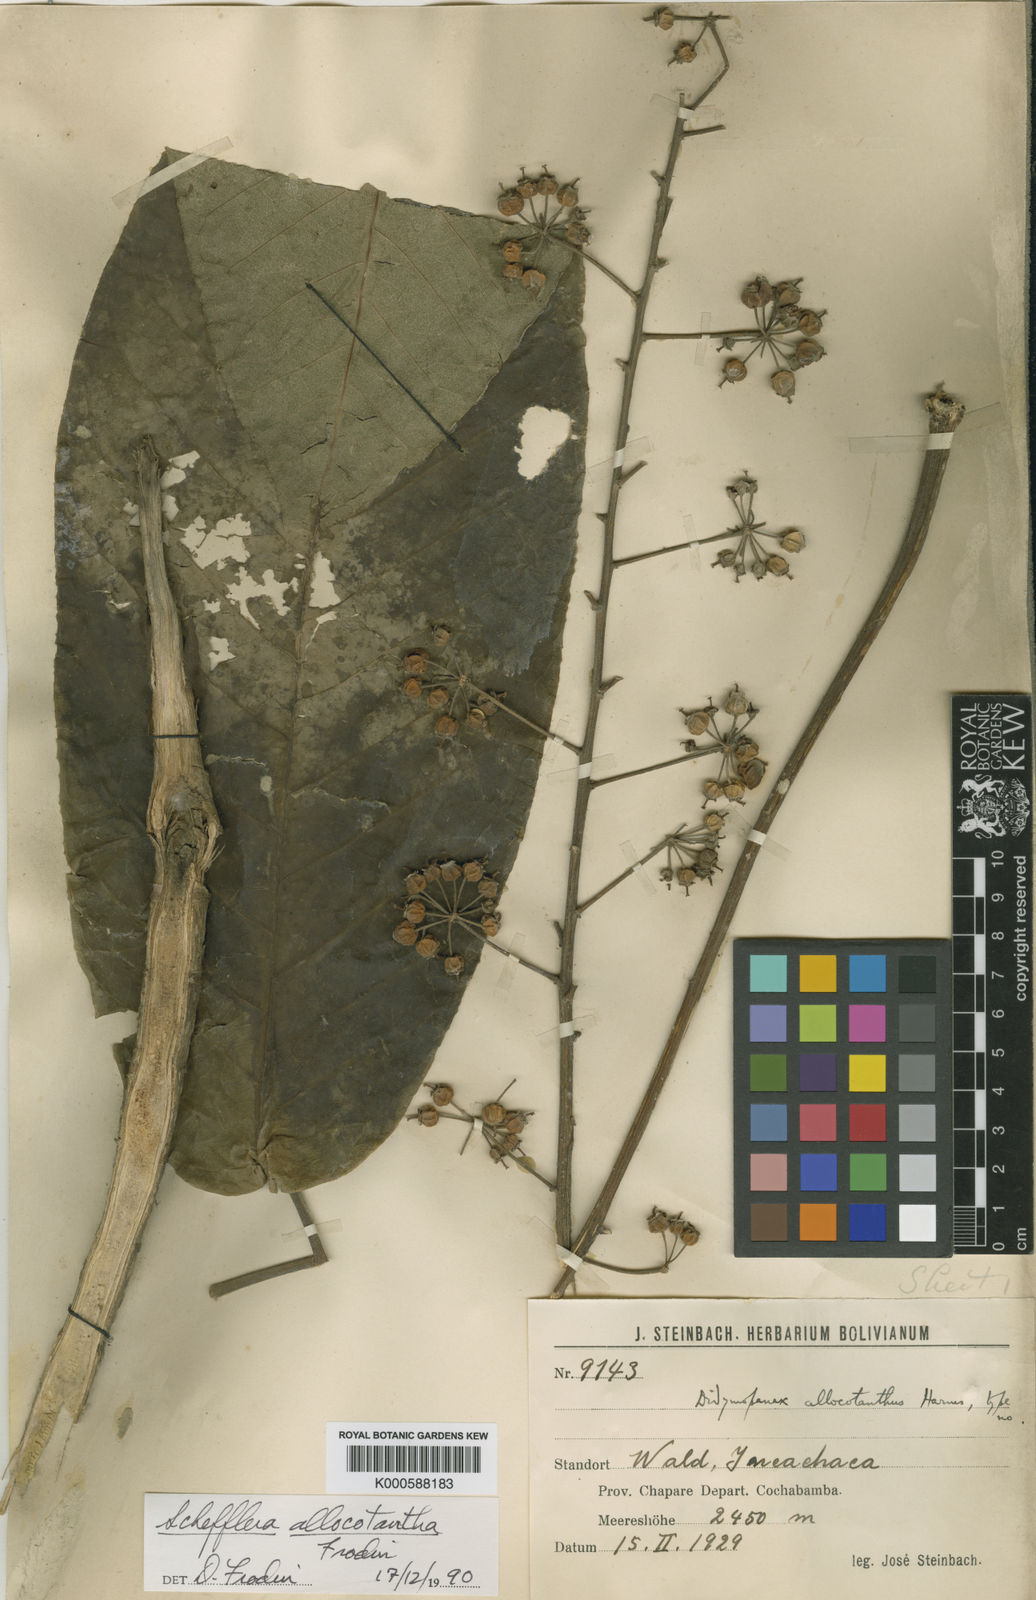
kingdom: Plantae
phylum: Tracheophyta
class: Magnoliopsida
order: Apiales
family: Araliaceae
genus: Sciodaphyllum
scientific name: Sciodaphyllum allocotanthum
